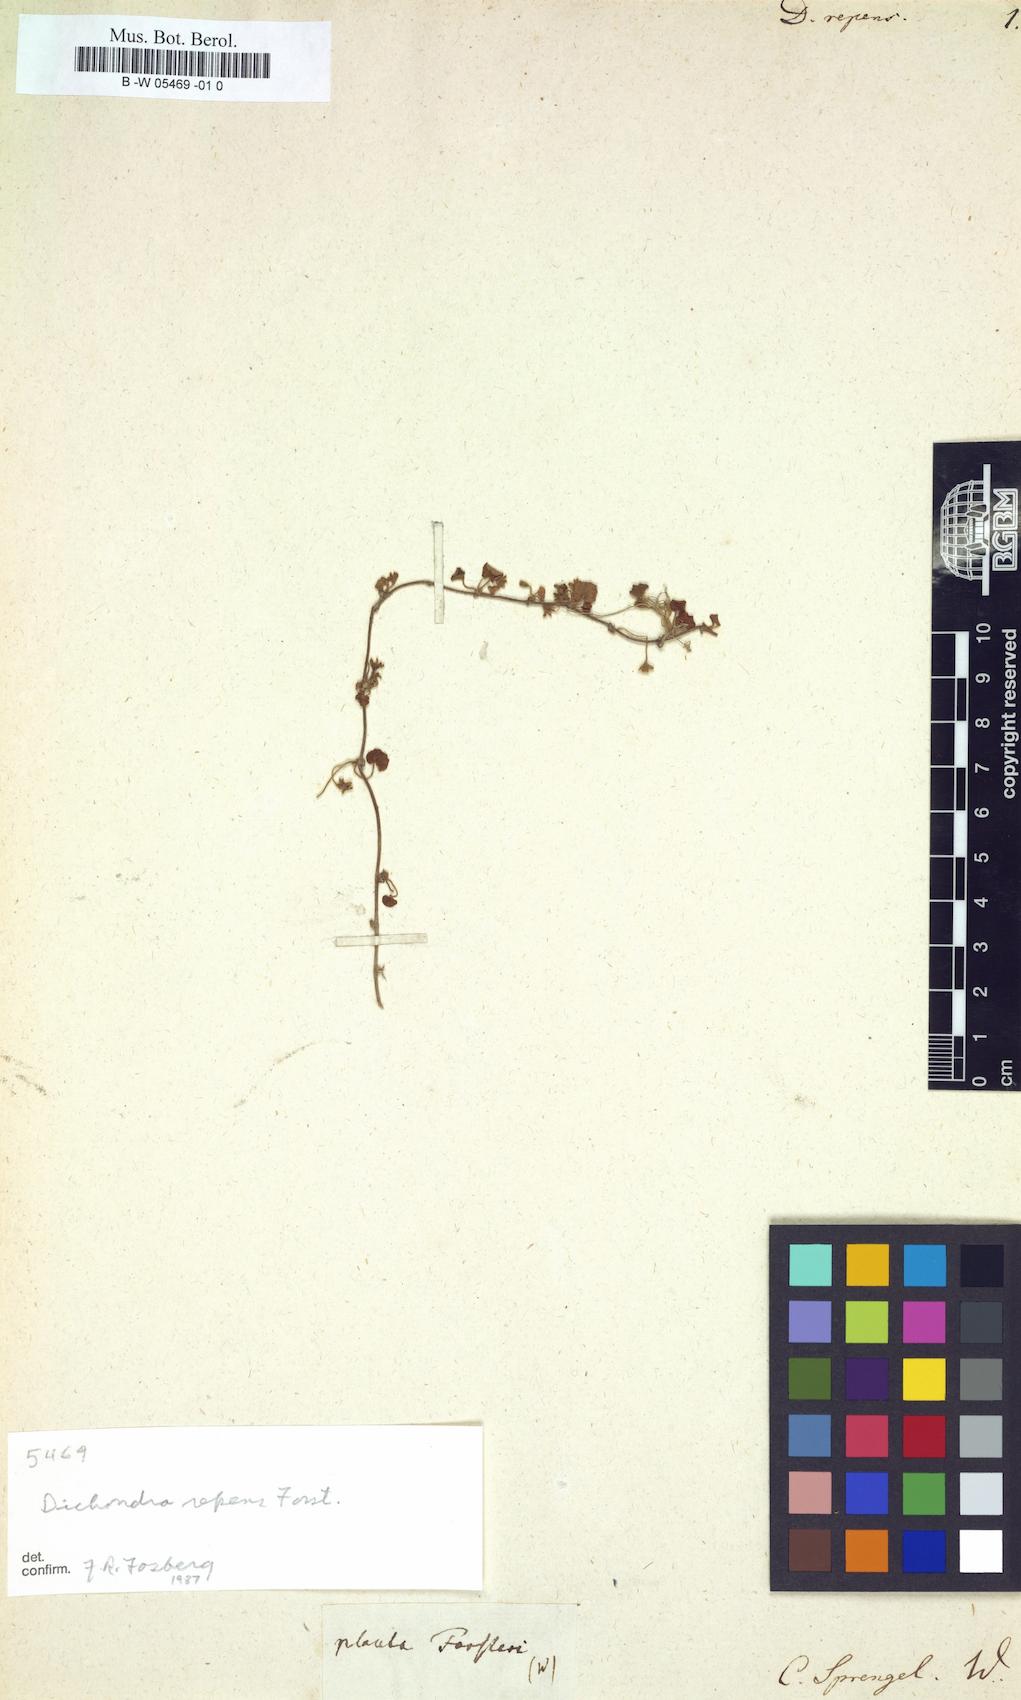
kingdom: Plantae
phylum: Tracheophyta
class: Magnoliopsida
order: Solanales
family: Convolvulaceae
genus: Dichondra
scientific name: Dichondra repens
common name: Kidneyweed
